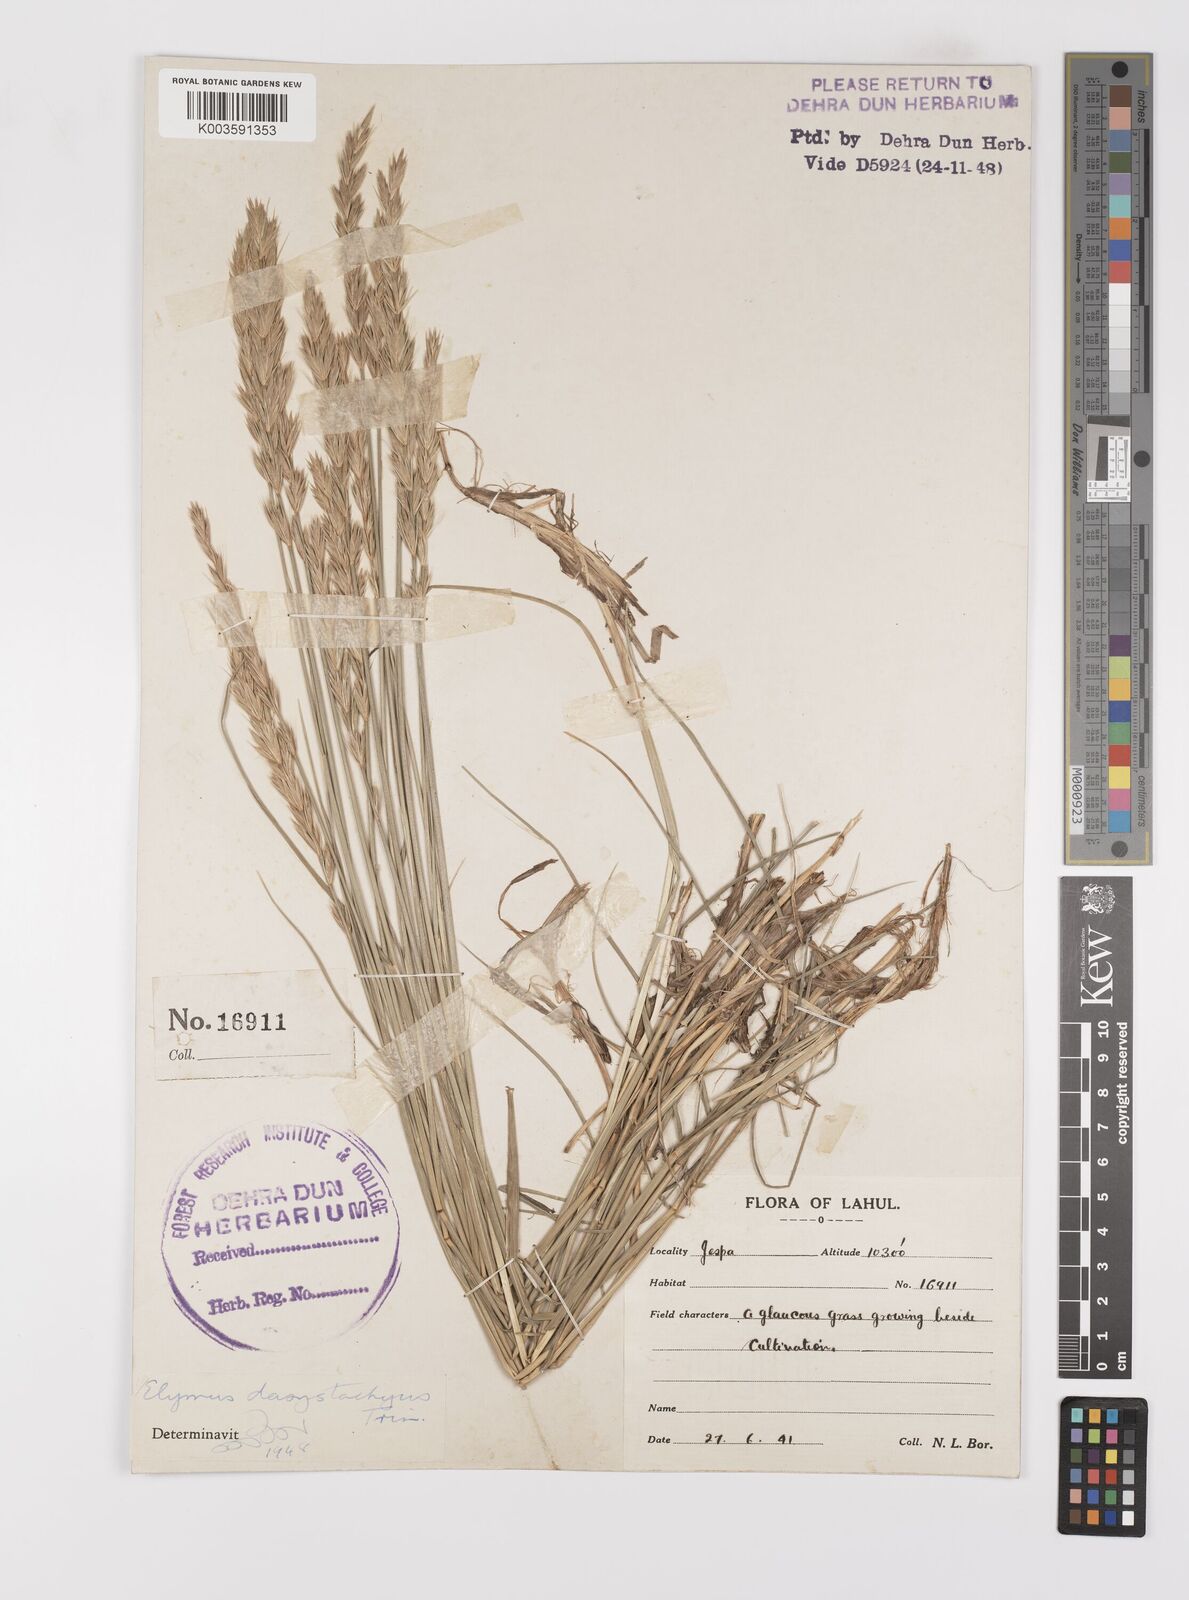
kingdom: Plantae
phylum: Tracheophyta
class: Liliopsida
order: Poales
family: Poaceae
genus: Leymus
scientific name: Leymus secalinus
